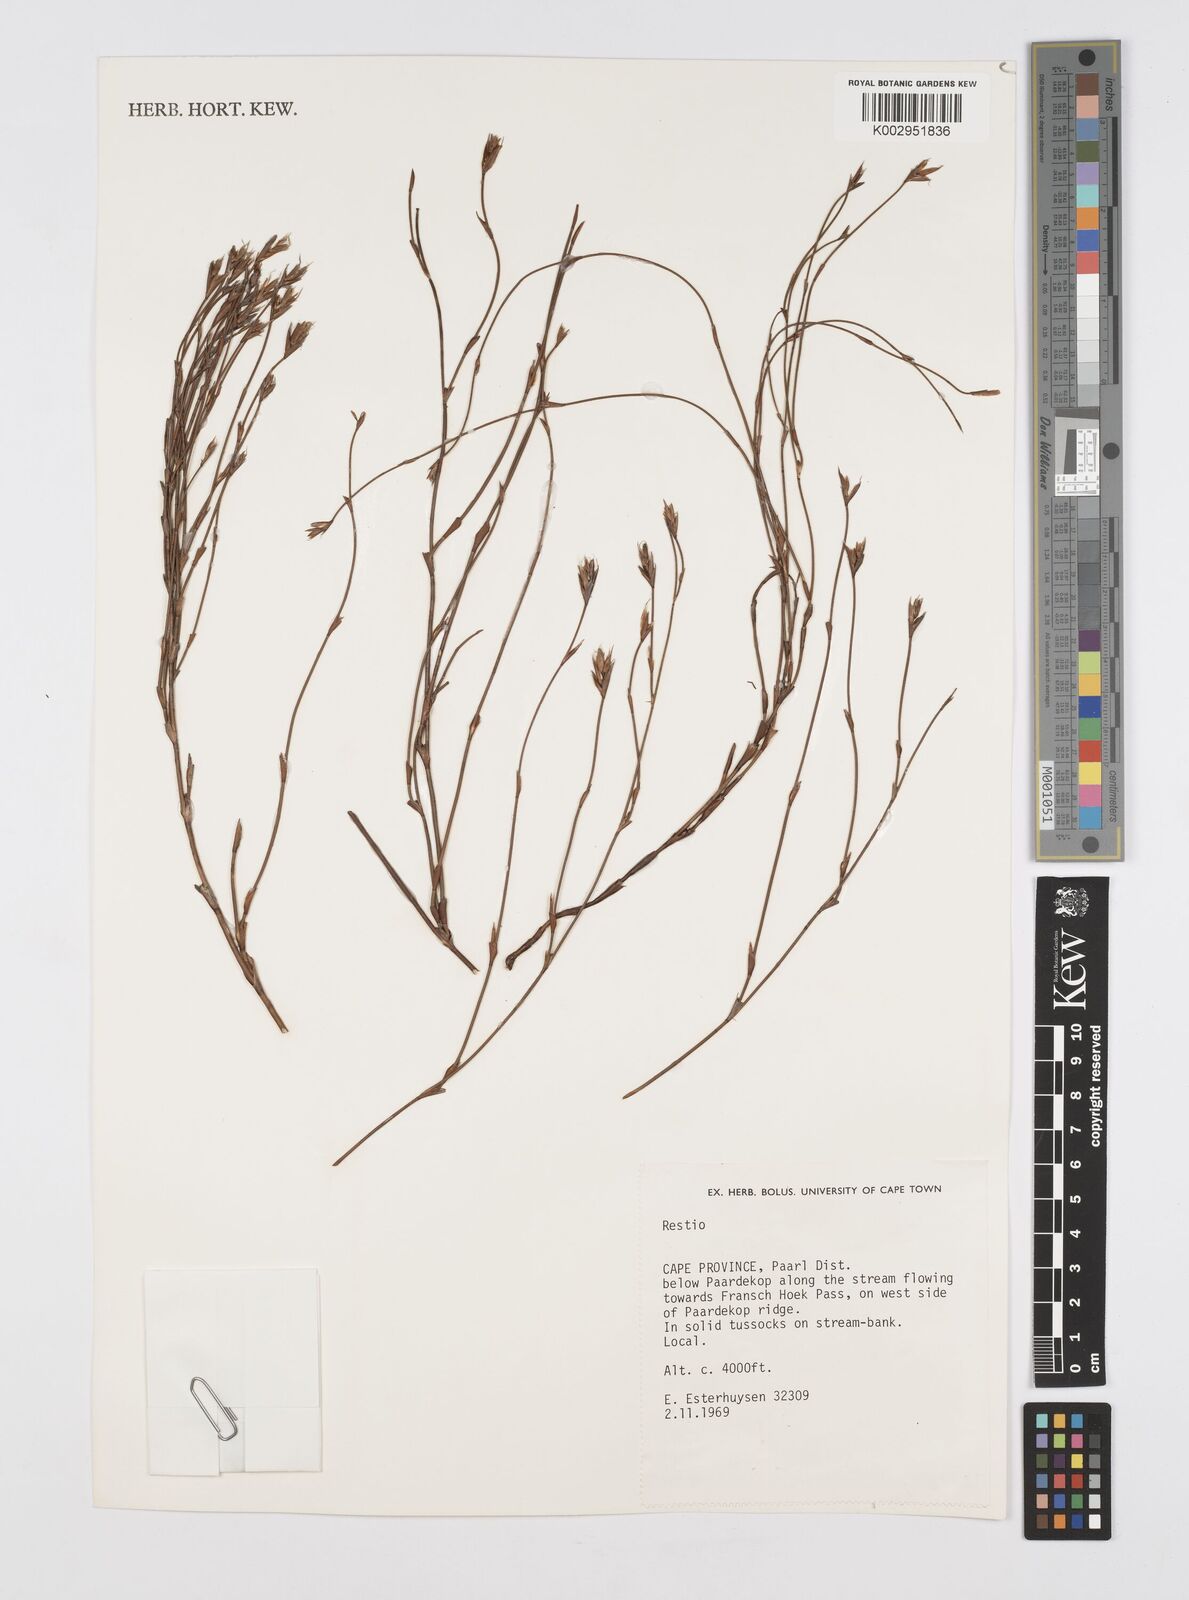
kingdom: Plantae
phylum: Tracheophyta
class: Liliopsida
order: Poales
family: Restionaceae
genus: Restio
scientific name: Restio
